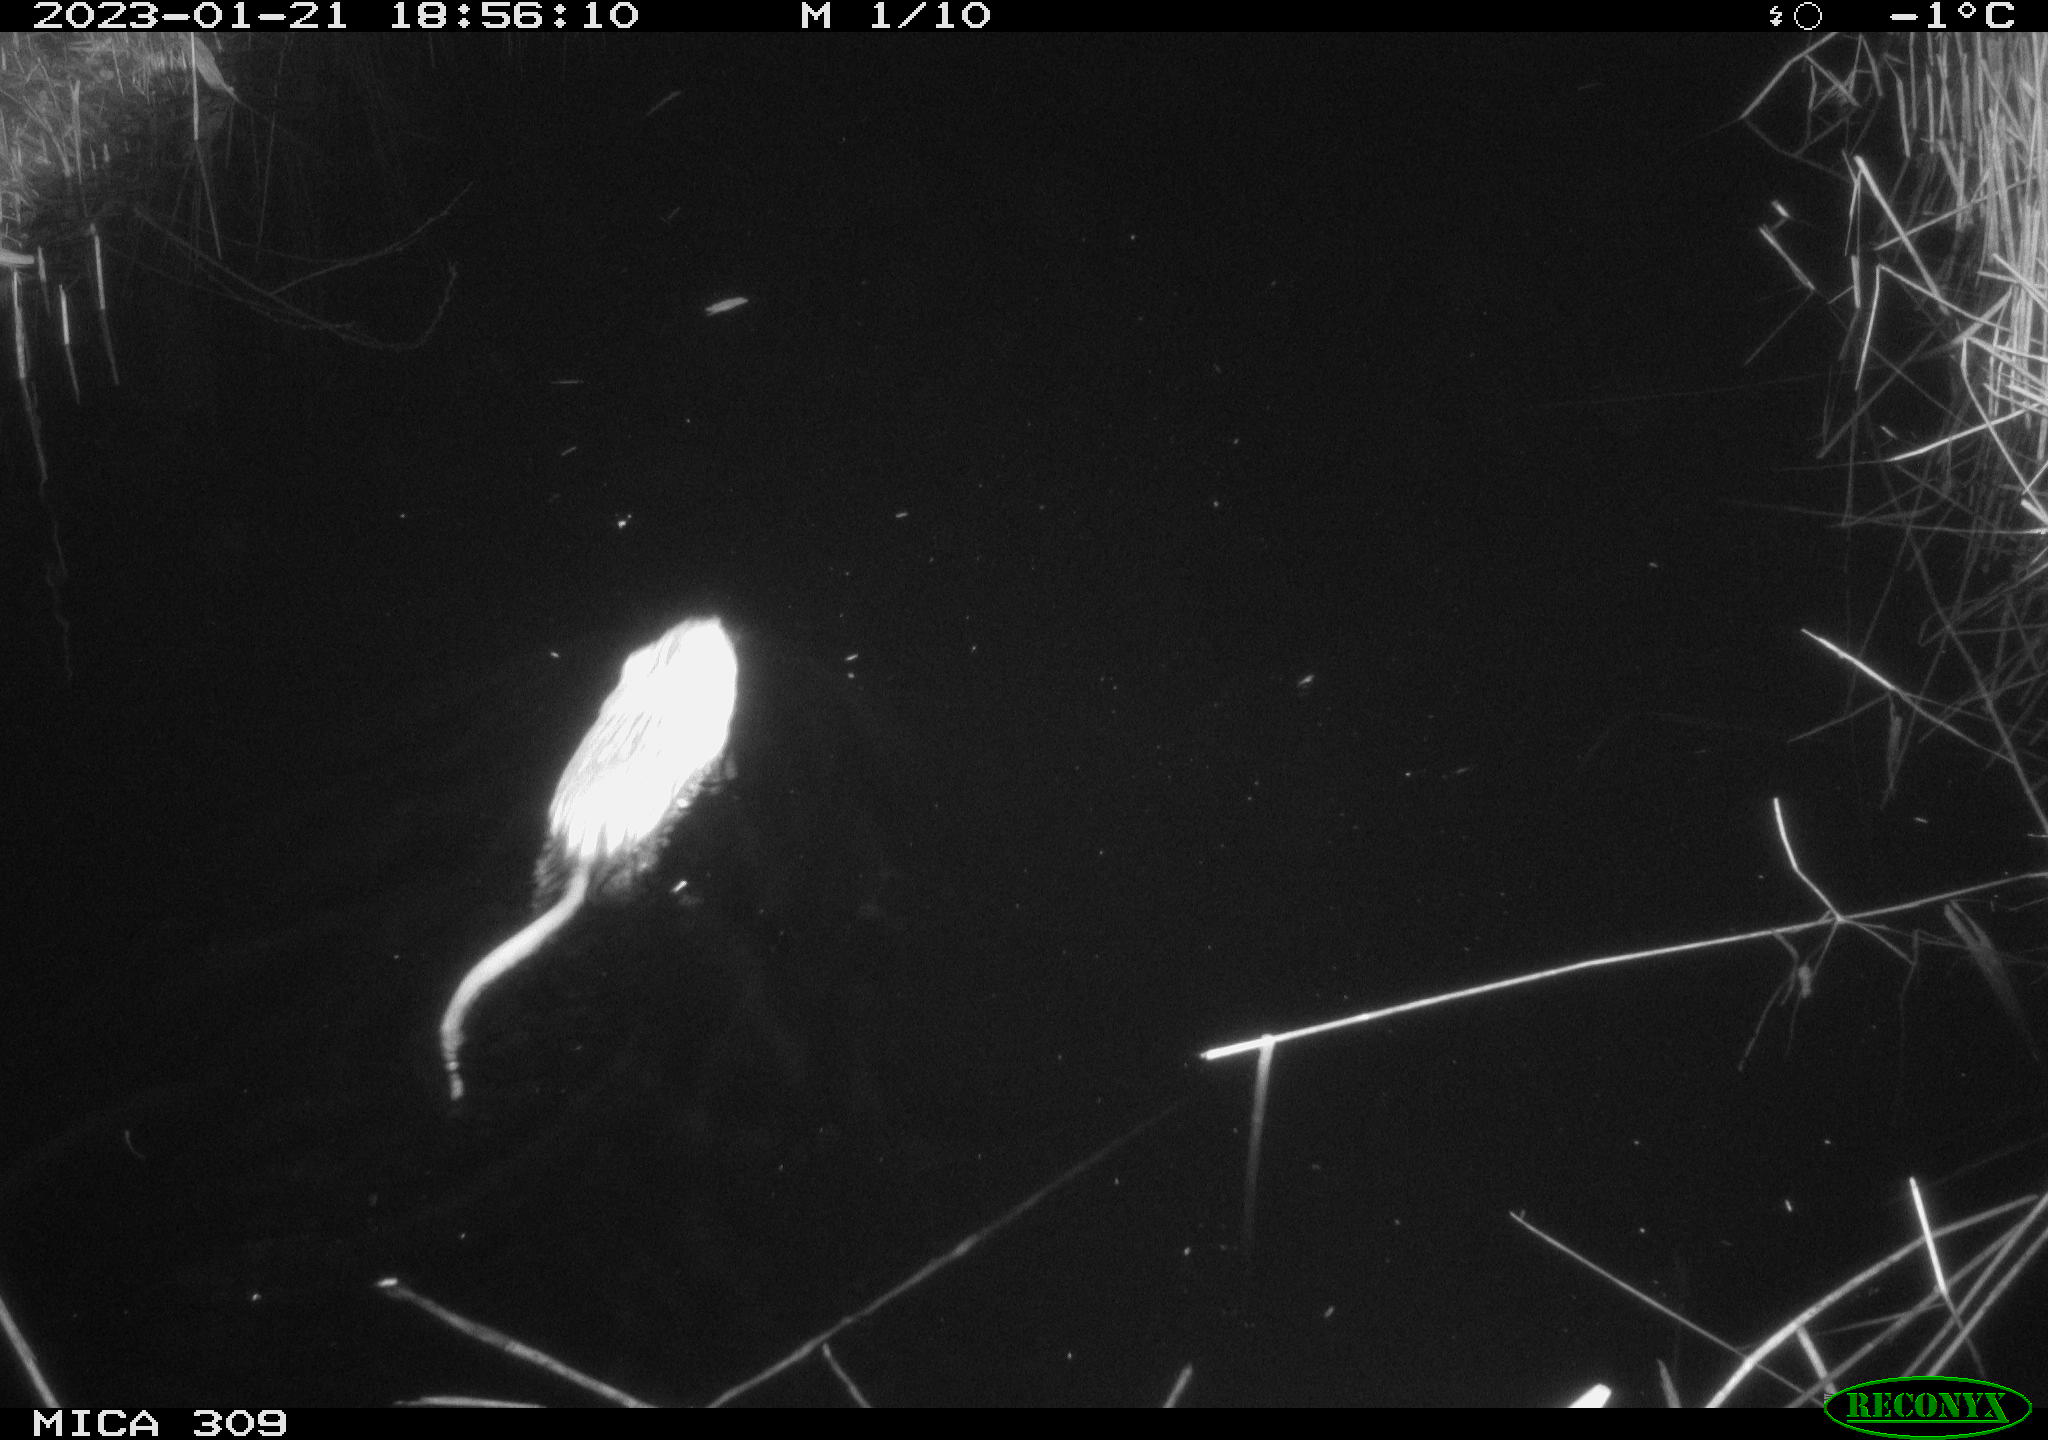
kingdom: Animalia
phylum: Chordata
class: Mammalia
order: Rodentia
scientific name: Rodentia
